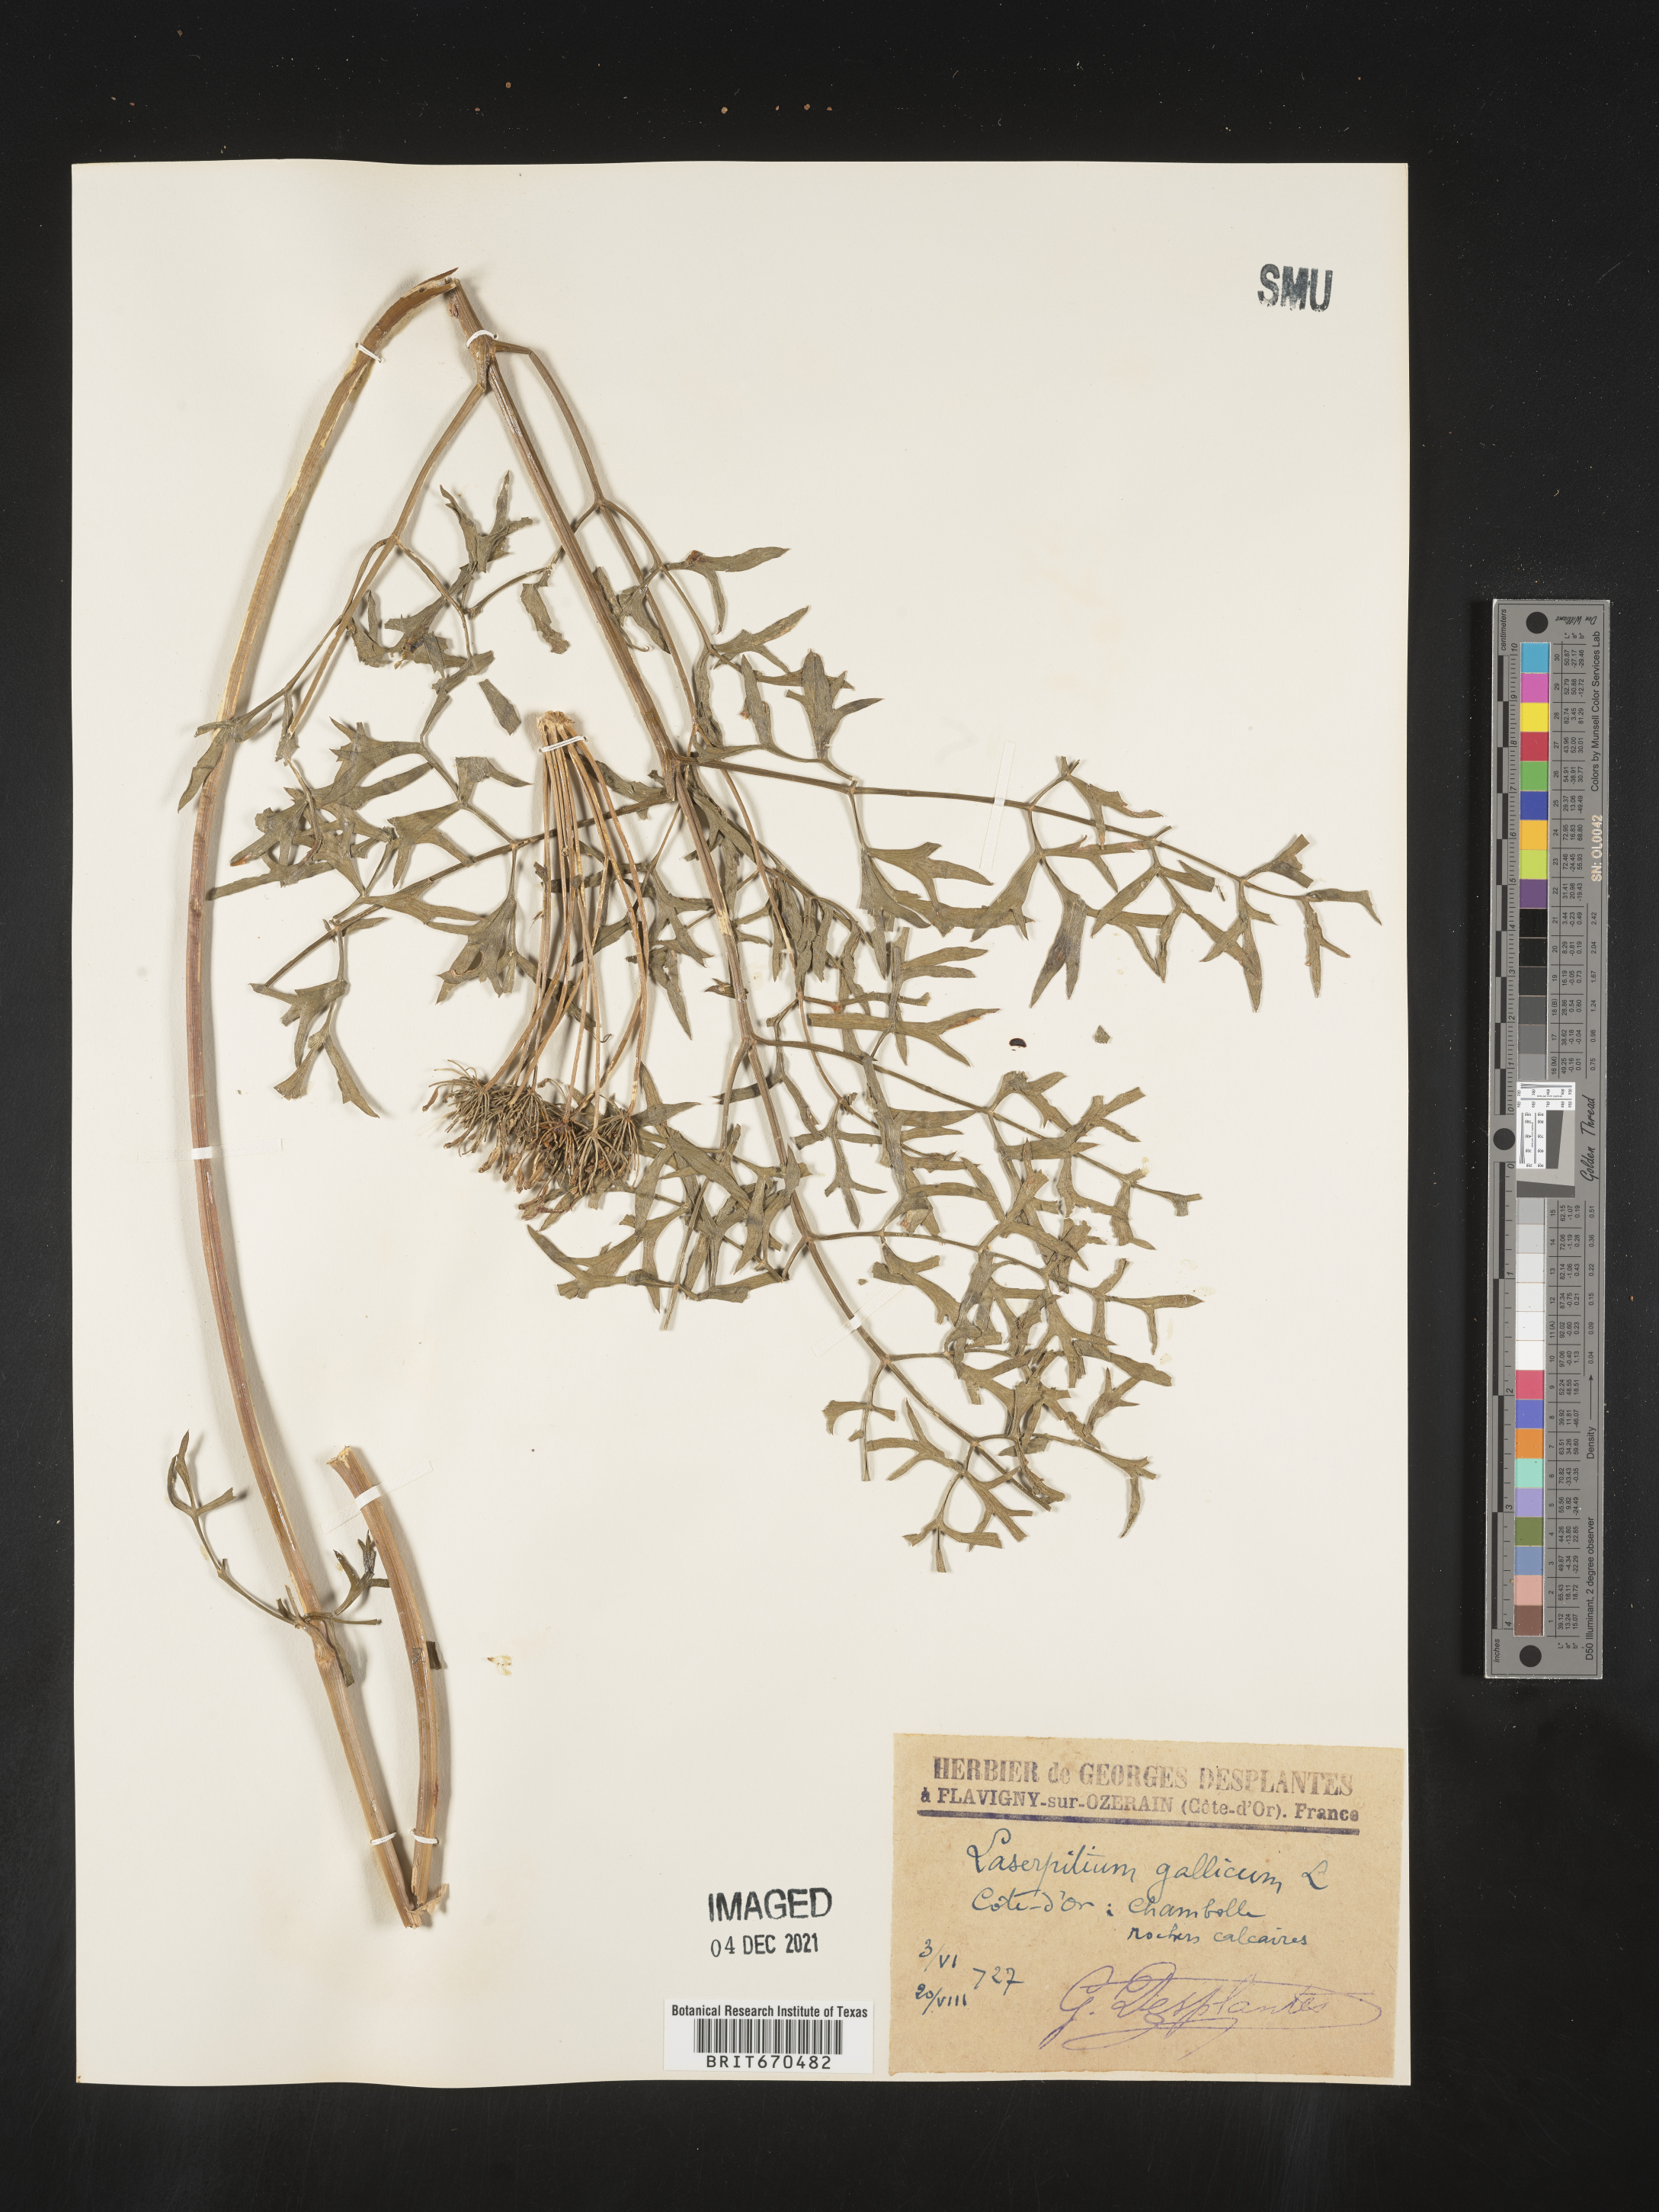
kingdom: Plantae
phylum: Tracheophyta
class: Magnoliopsida
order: Apiales
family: Apiaceae
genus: Laserpitium
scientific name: Laserpitium
